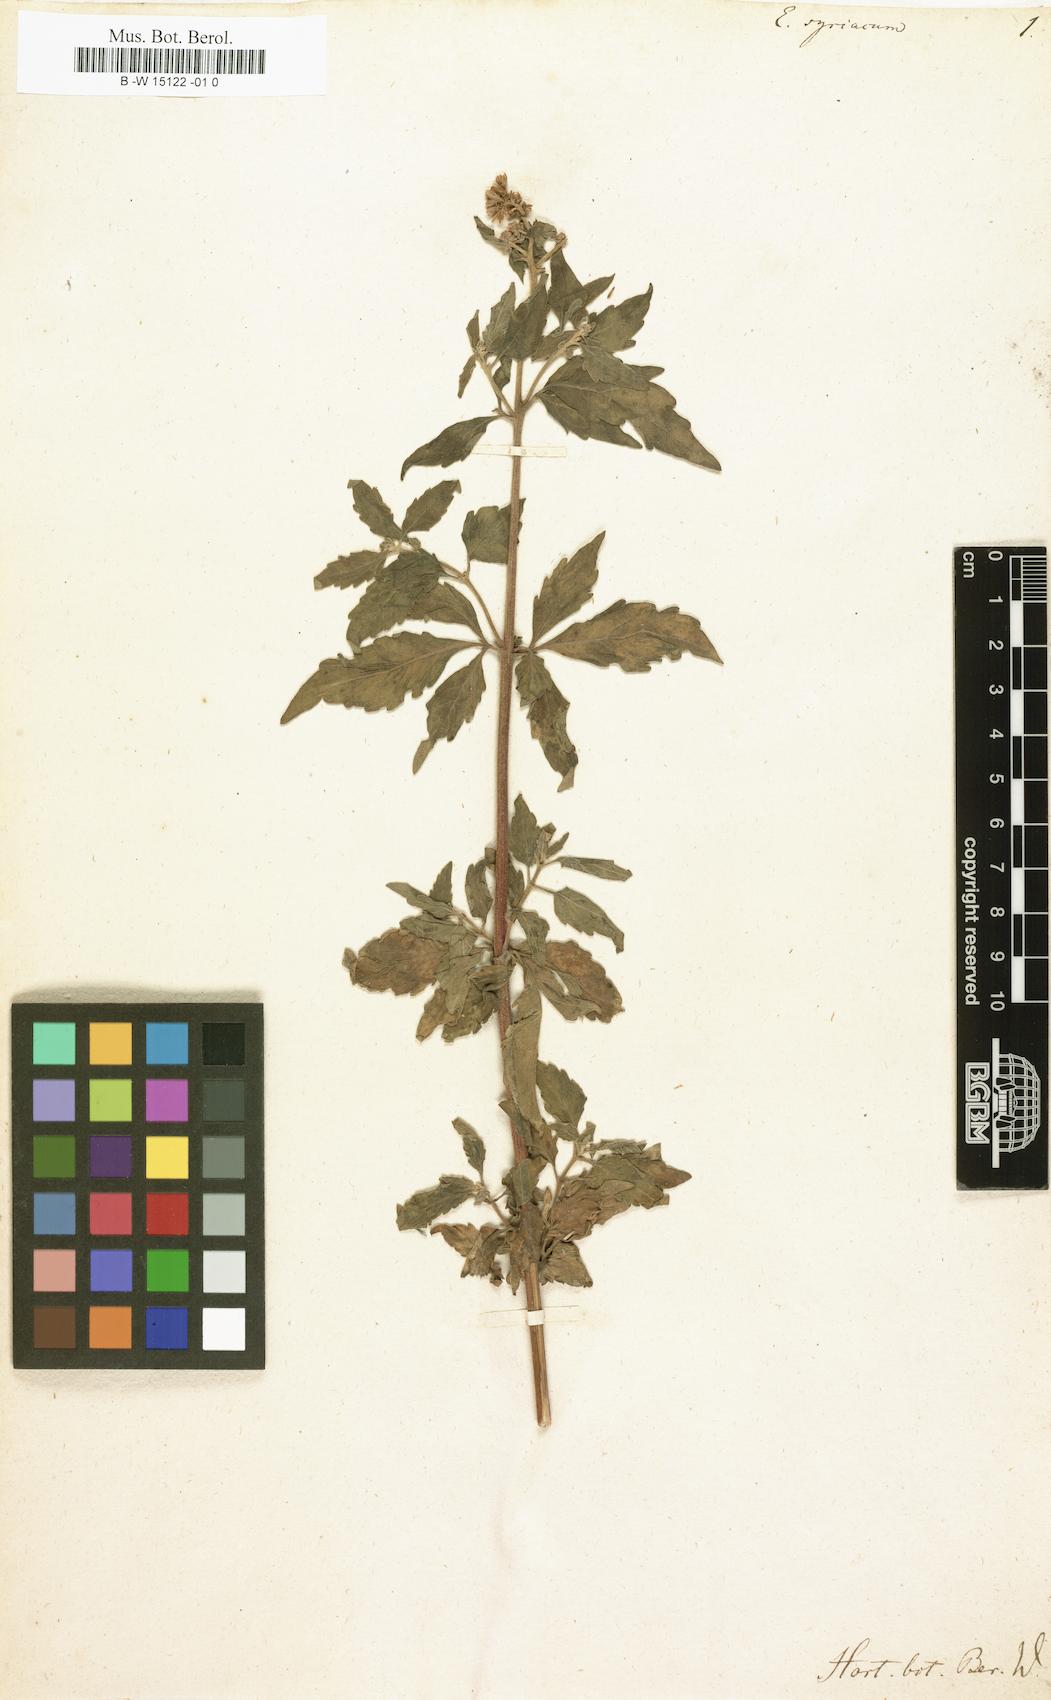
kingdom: Plantae
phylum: Tracheophyta
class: Magnoliopsida
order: Asterales
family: Asteraceae
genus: Eupatorium
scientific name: Eupatorium syriacum
